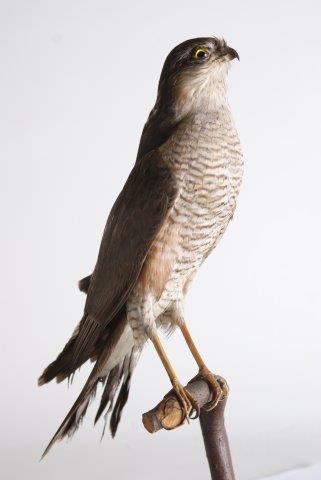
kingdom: Animalia
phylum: Chordata
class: Aves
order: Accipitriformes
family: Accipitridae
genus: Accipiter
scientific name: Accipiter nisus
